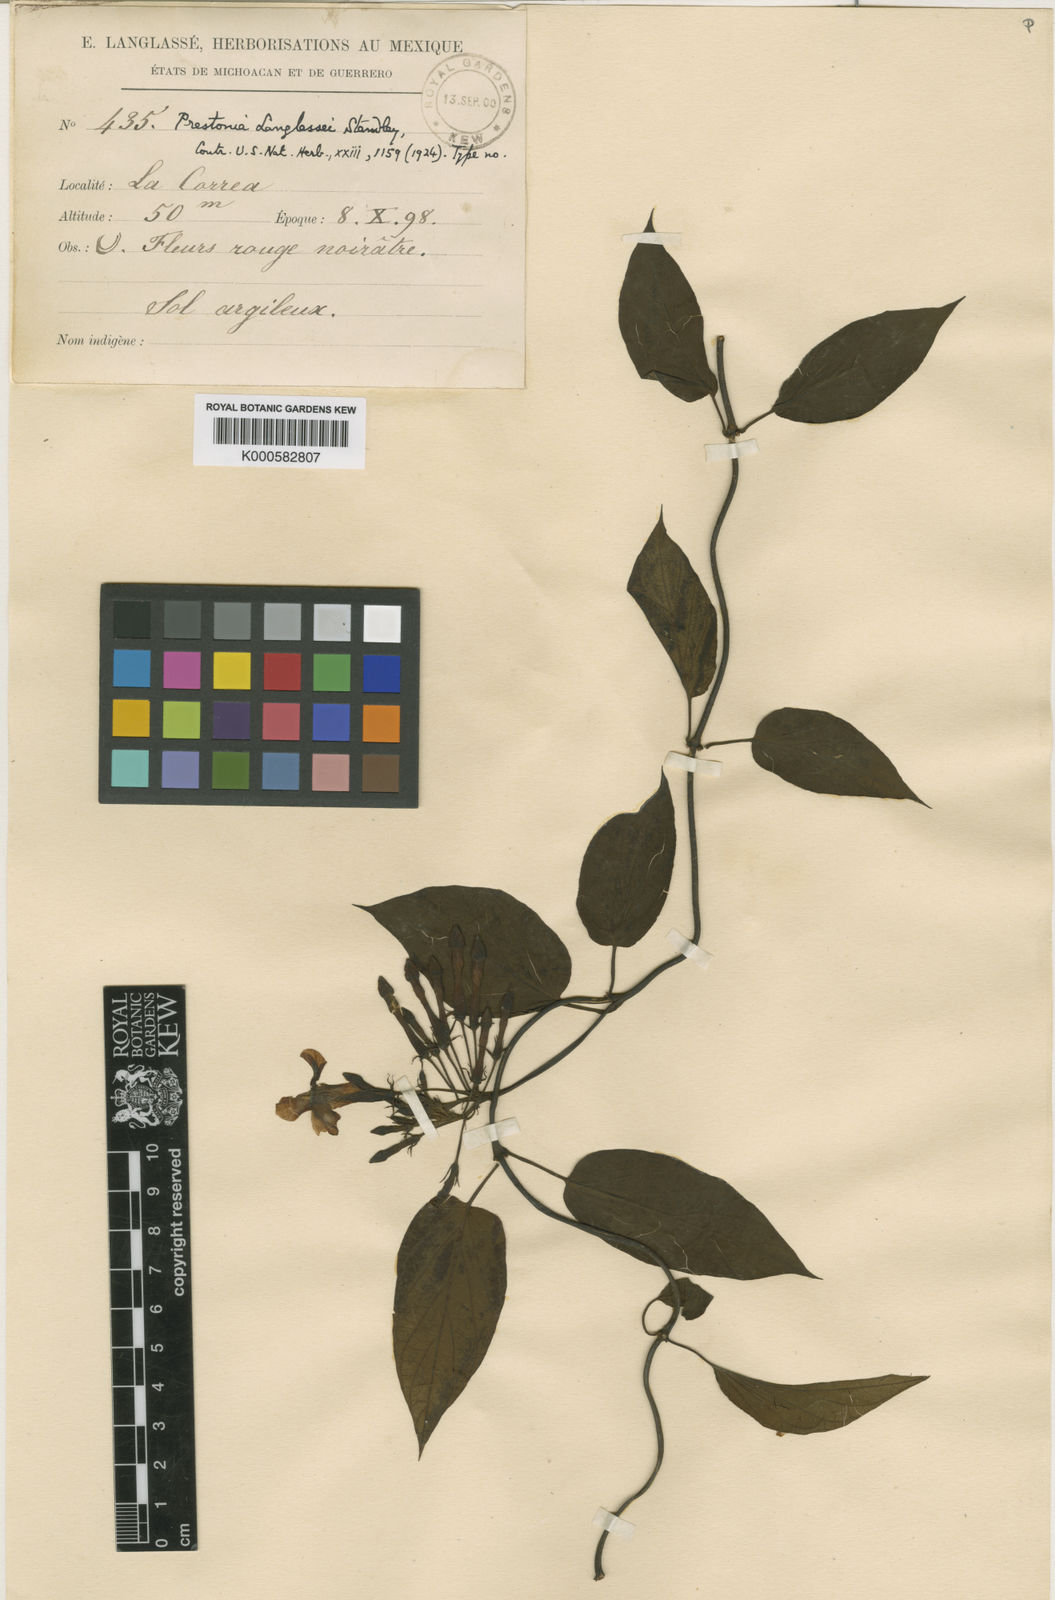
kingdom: Plantae
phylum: Tracheophyta
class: Magnoliopsida
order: Gentianales
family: Apocynaceae
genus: Laubertia
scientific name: Laubertia contorta
